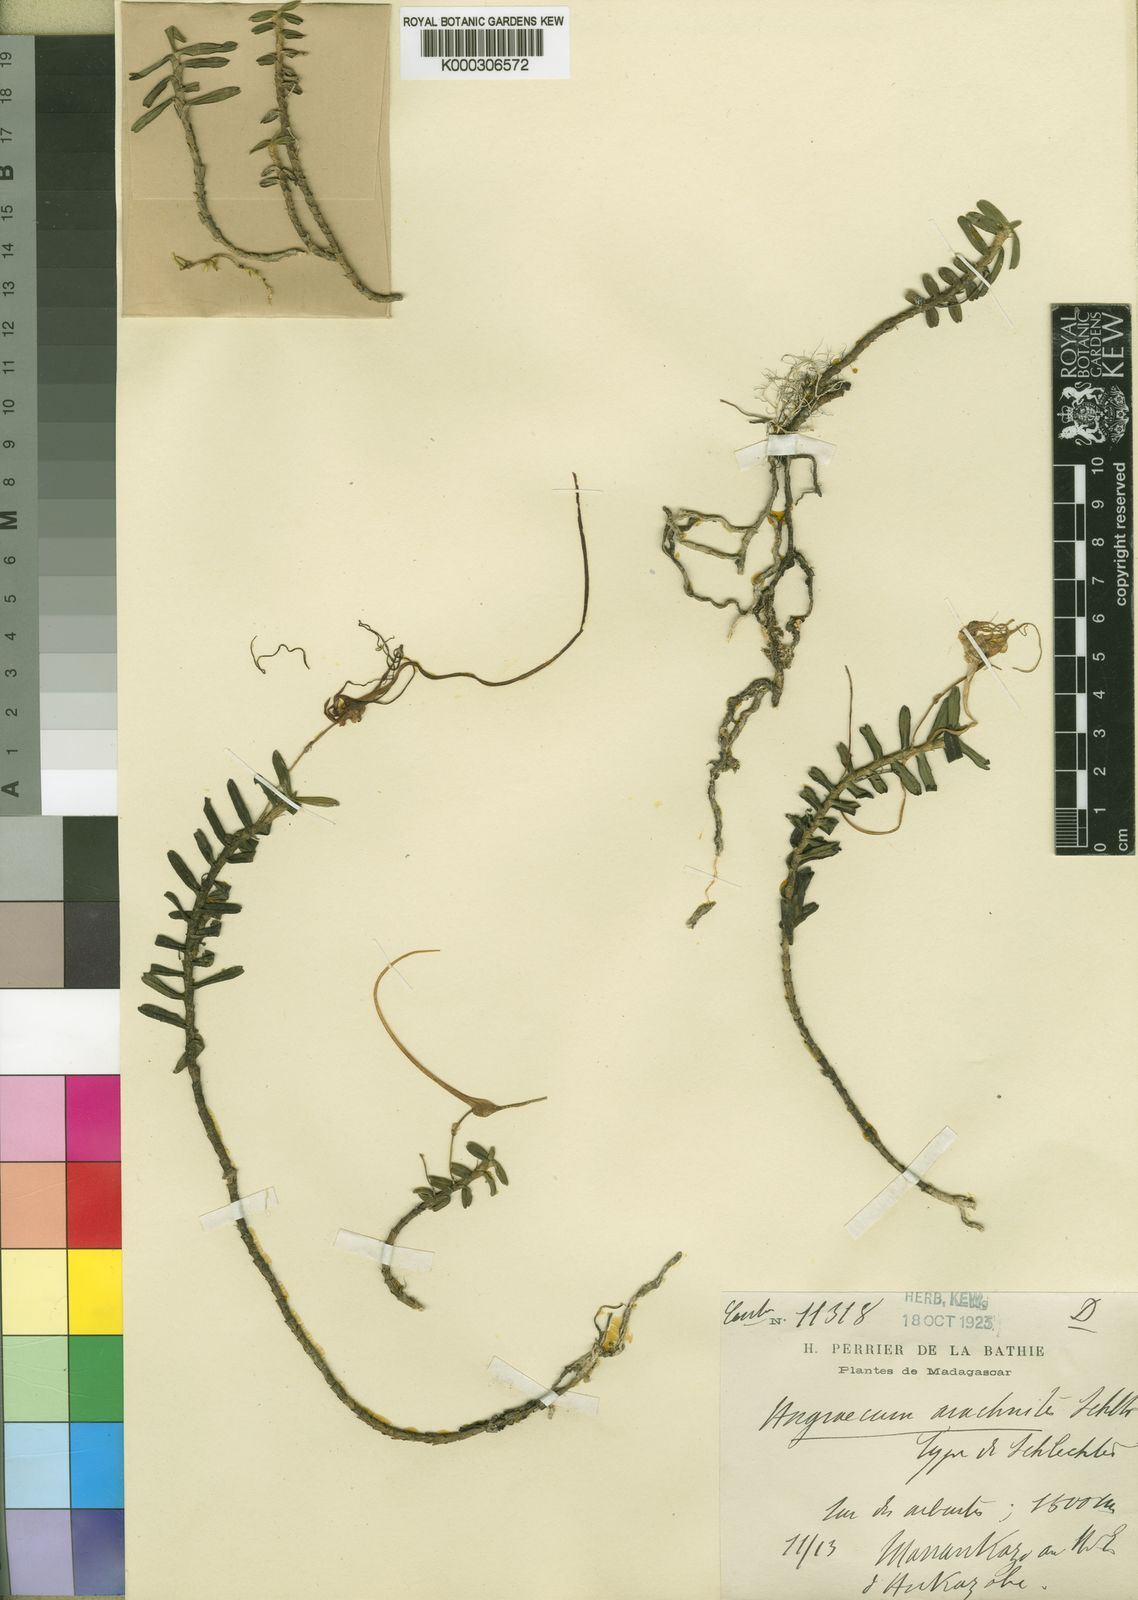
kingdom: Plantae
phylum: Tracheophyta
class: Liliopsida
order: Asparagales
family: Orchidaceae
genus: Angraecum
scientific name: Angraecum germinyanum
